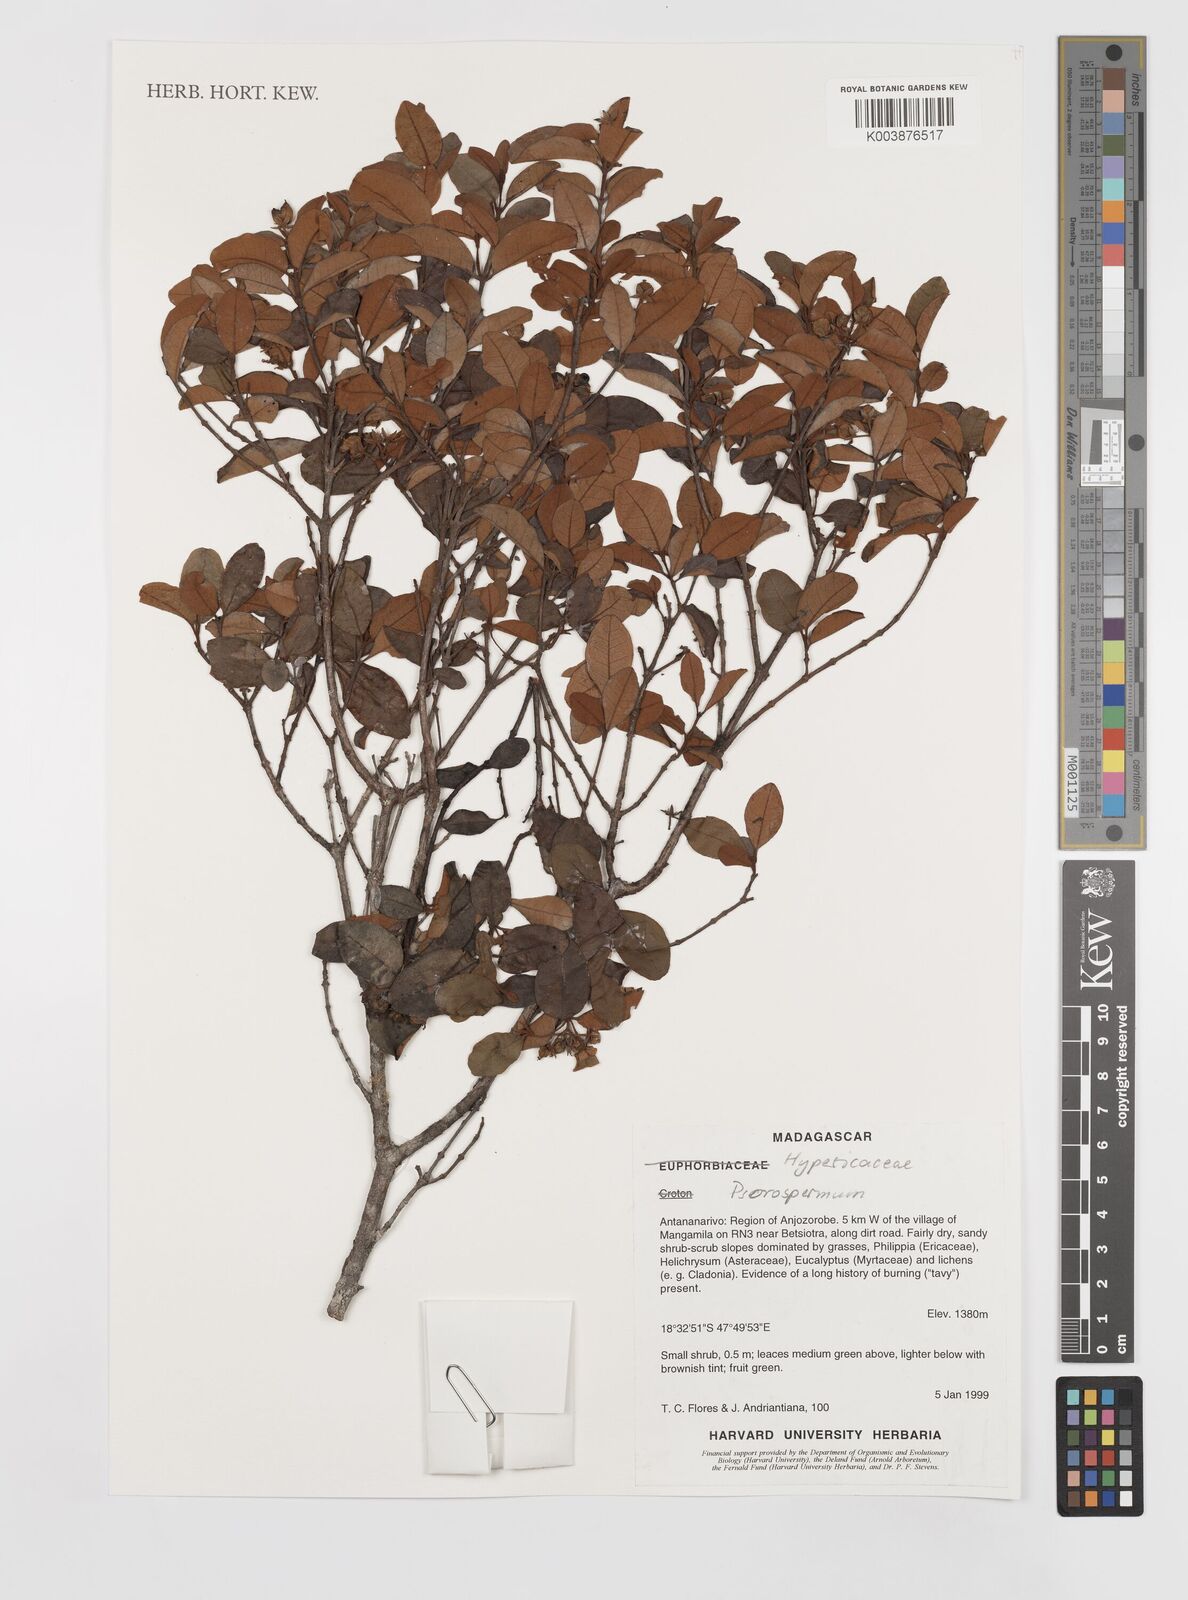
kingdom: Plantae
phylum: Tracheophyta
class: Magnoliopsida
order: Malpighiales
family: Hypericaceae
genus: Psorospermum
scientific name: Psorospermum
